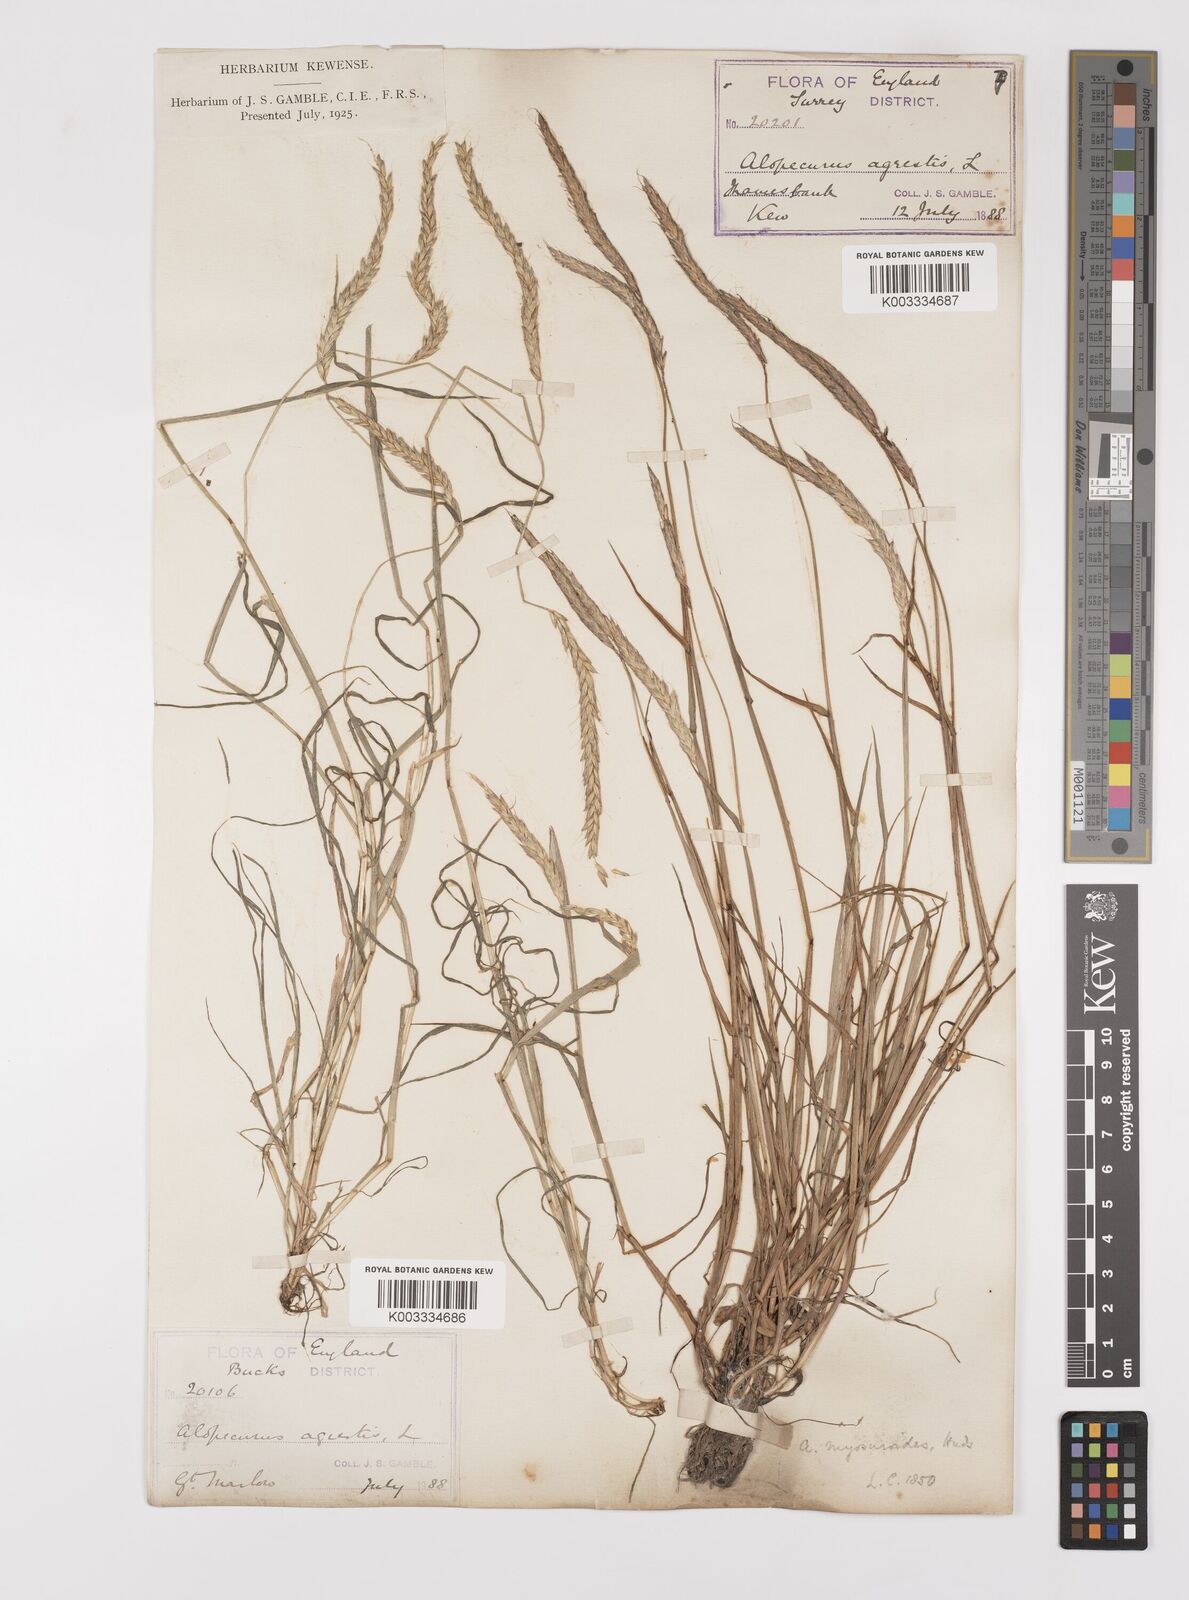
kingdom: Plantae
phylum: Tracheophyta
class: Liliopsida
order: Poales
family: Poaceae
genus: Alopecurus
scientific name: Alopecurus myosuroides
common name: Black-grass
